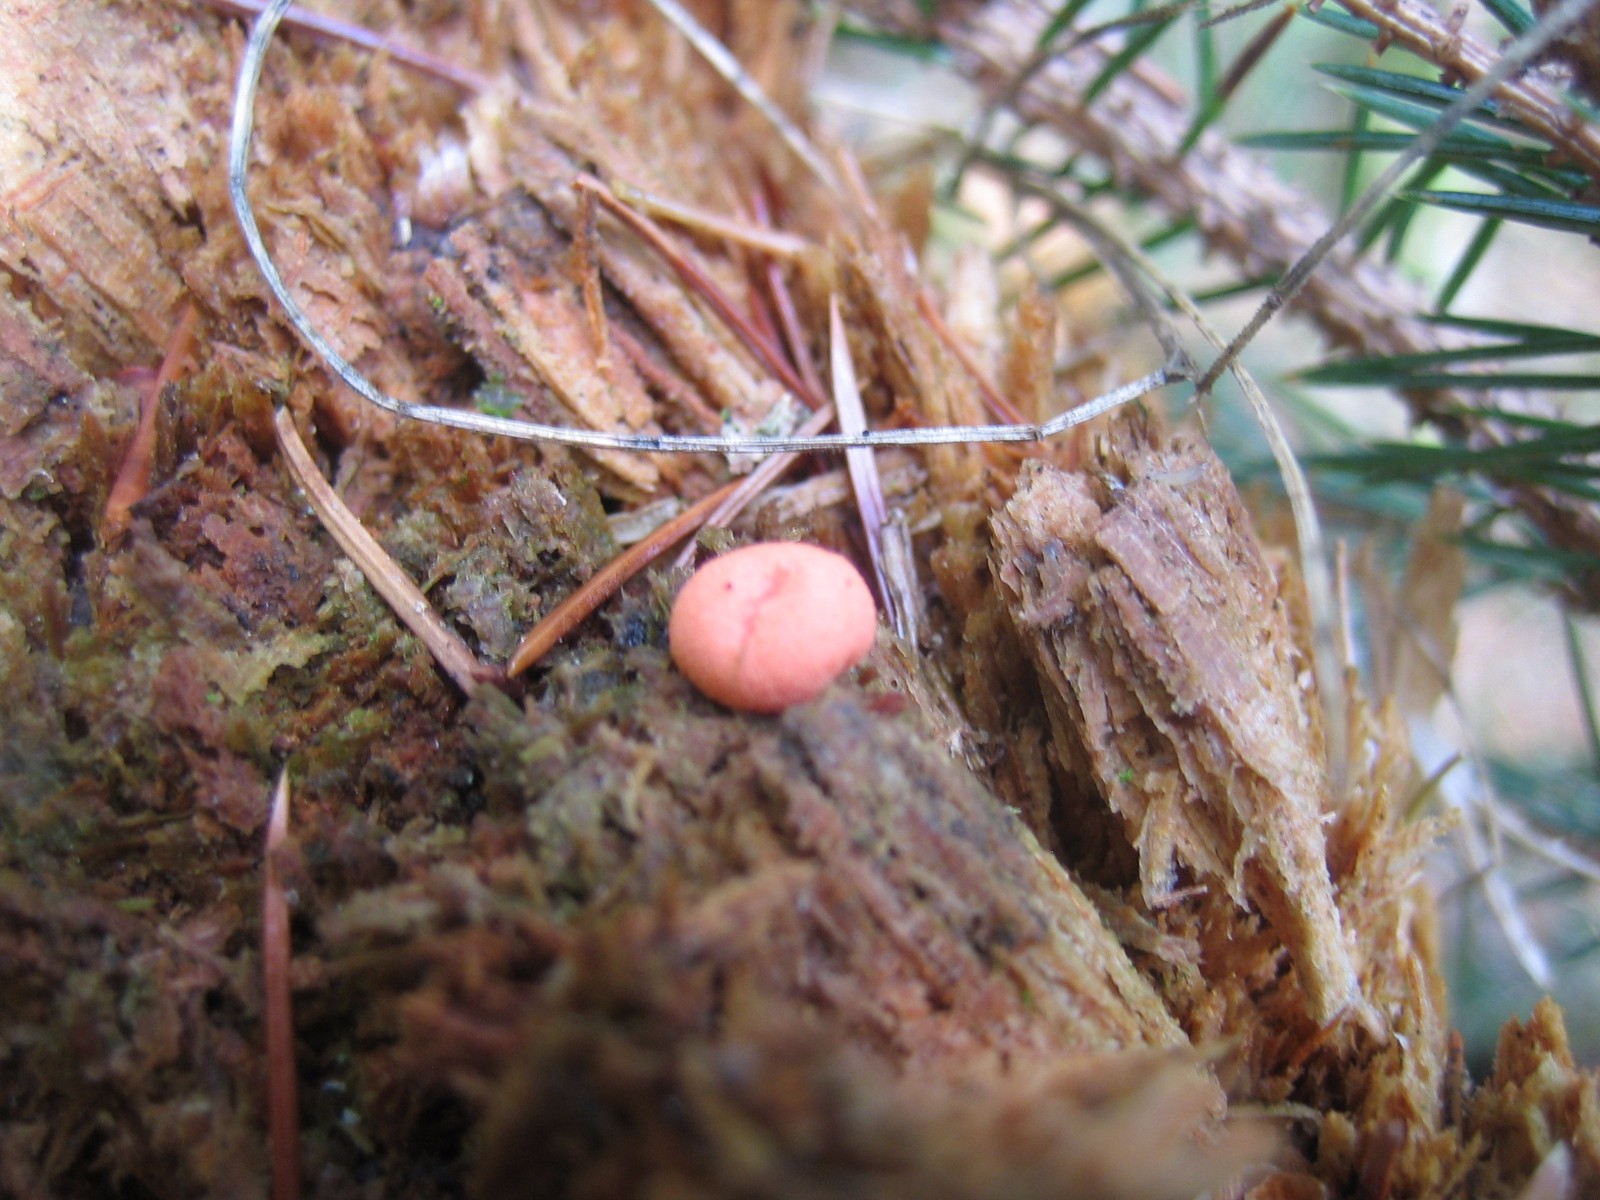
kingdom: Protozoa
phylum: Mycetozoa
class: Myxomycetes
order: Cribrariales
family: Tubiferaceae
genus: Lycogala
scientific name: Lycogala epidendrum
